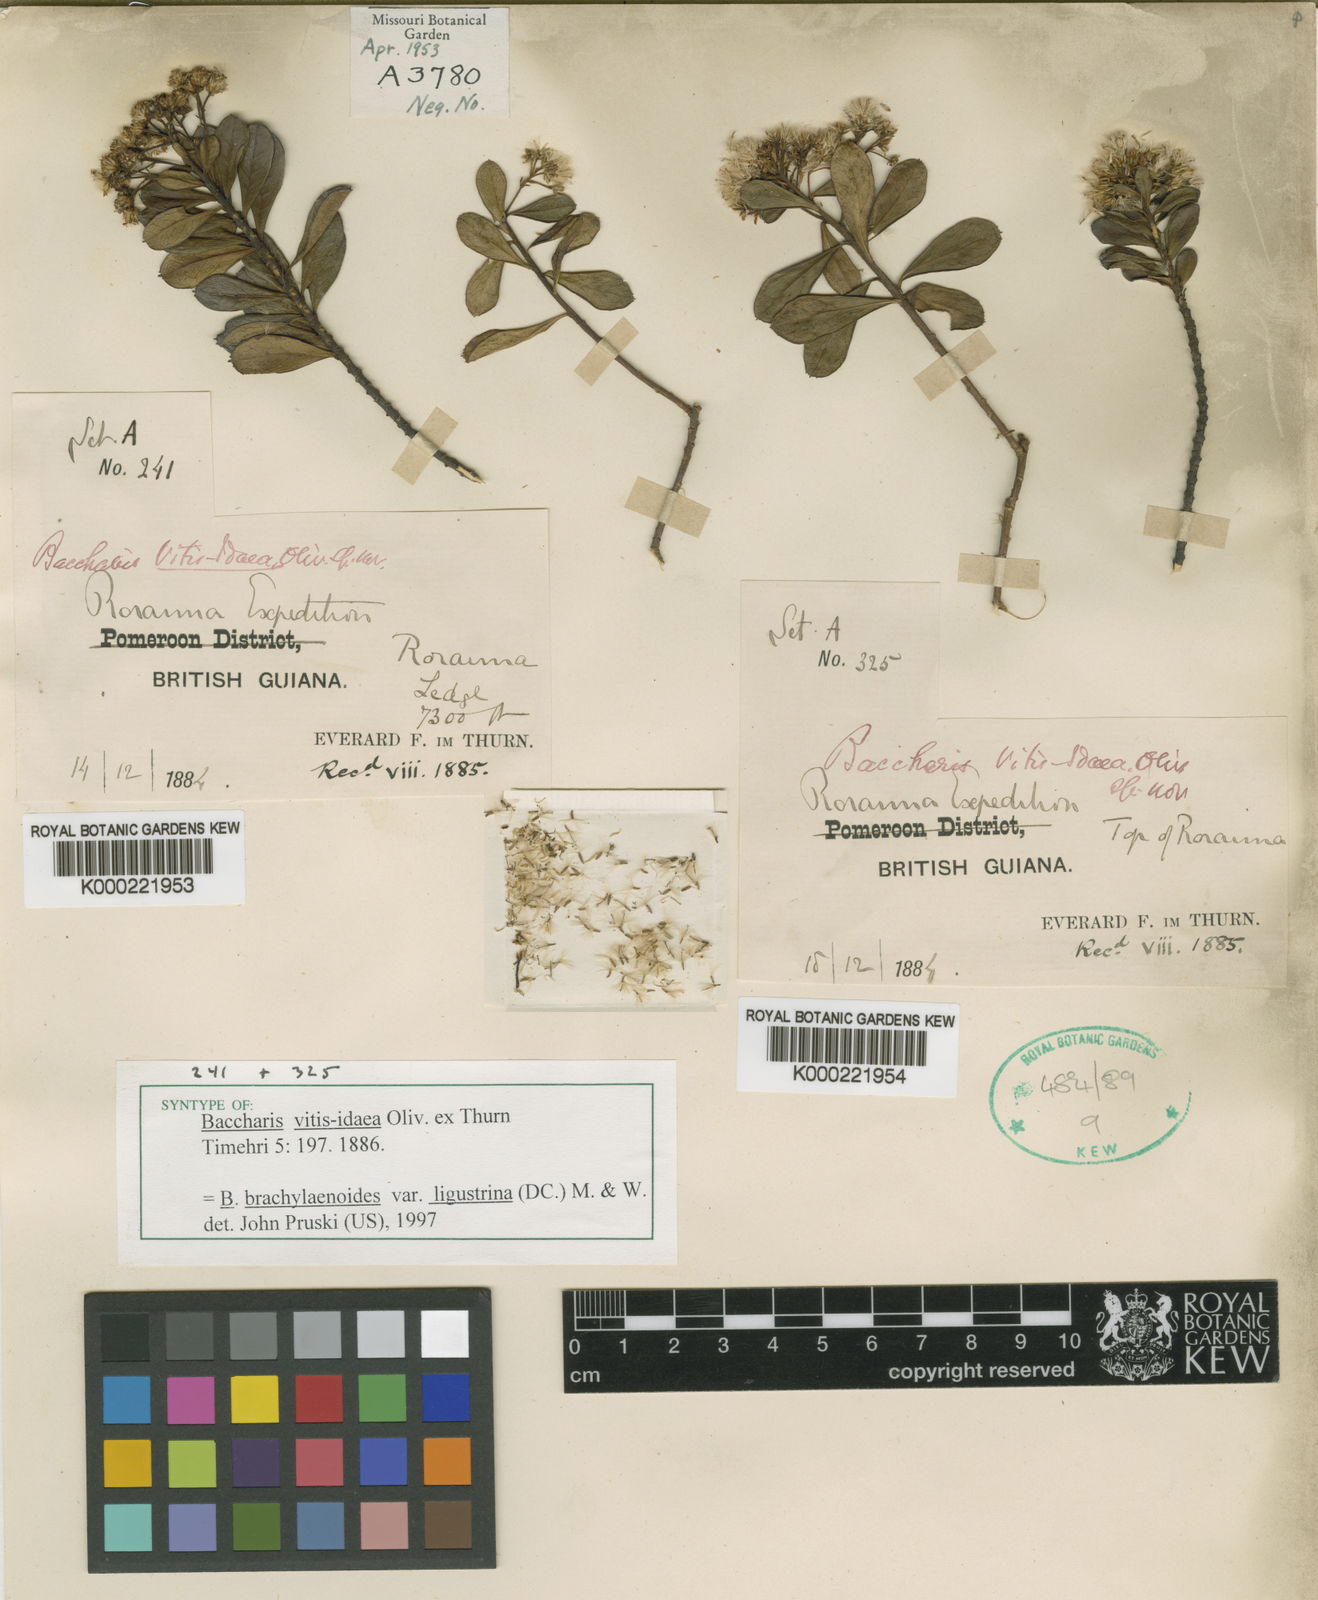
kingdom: Plantae
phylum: Tracheophyta
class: Magnoliopsida
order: Asterales
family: Asteraceae
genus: Baccharis
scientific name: Baccharis vitis-idaea
